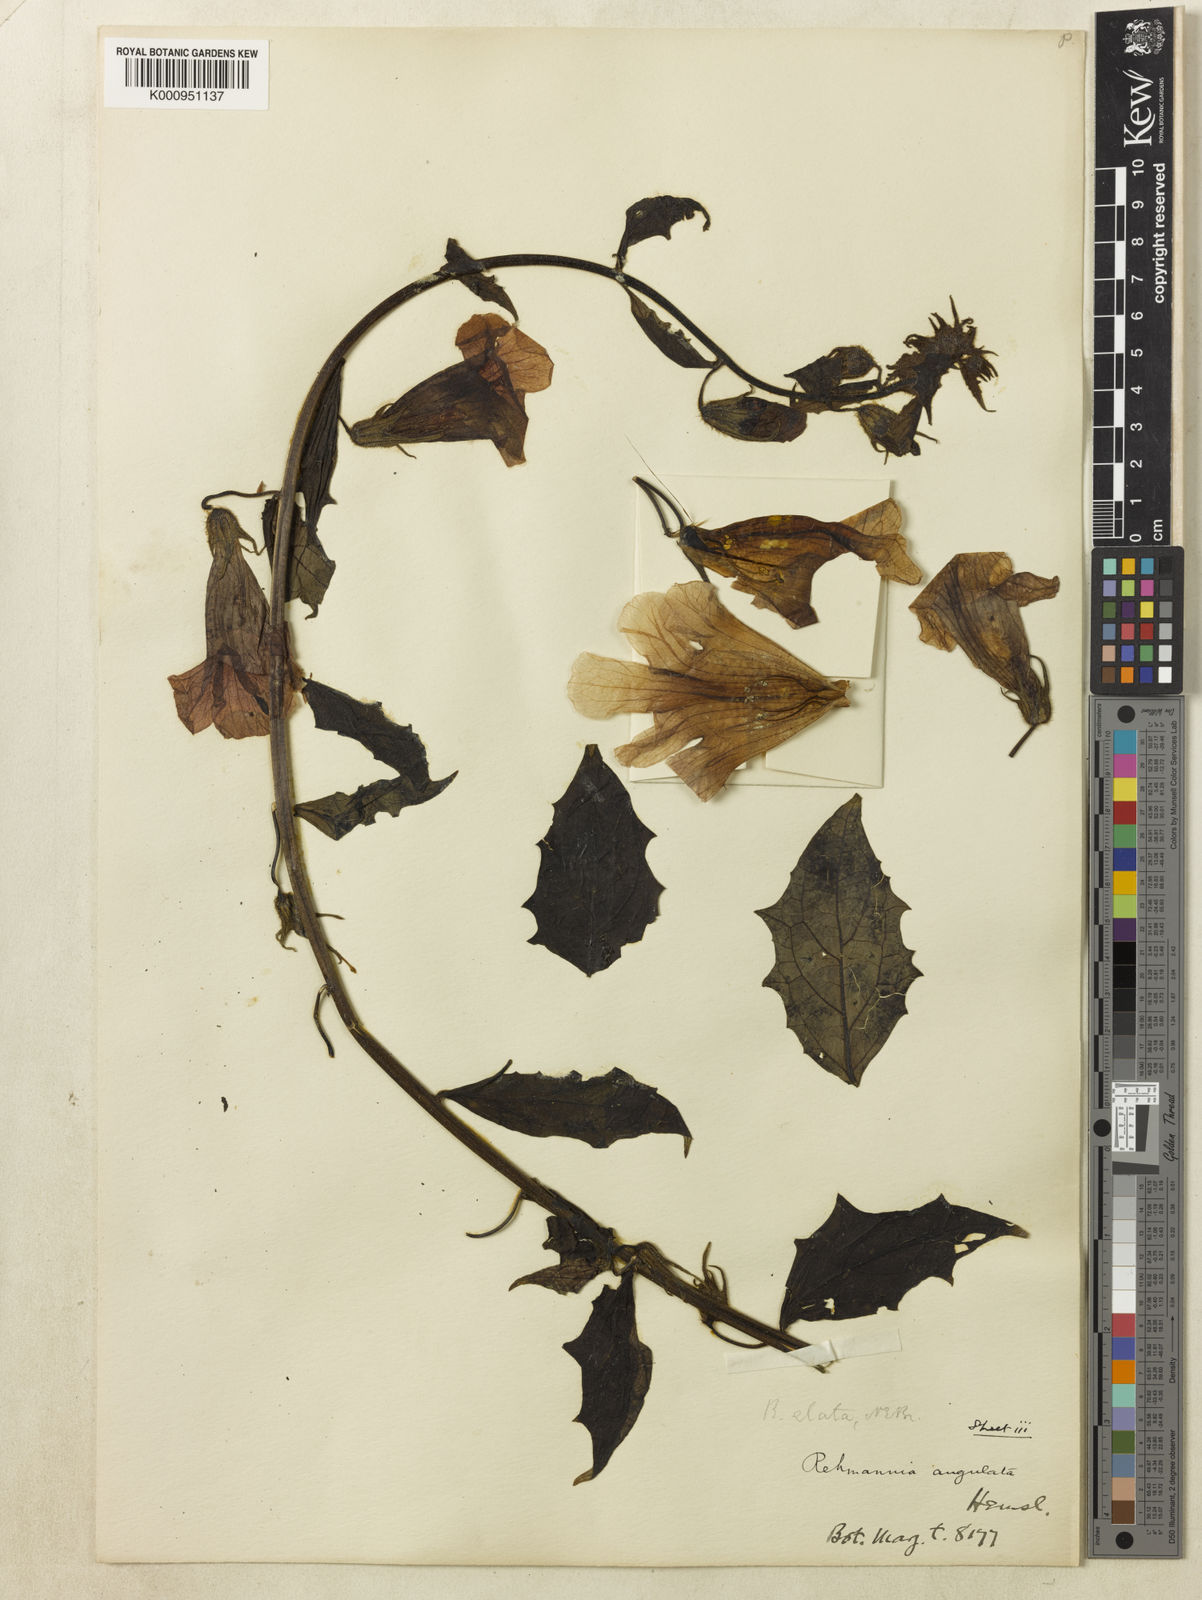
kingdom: Plantae
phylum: Tracheophyta
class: Magnoliopsida
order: Lamiales
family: Rehmanniaceae
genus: Rehmannia
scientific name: Rehmannia
